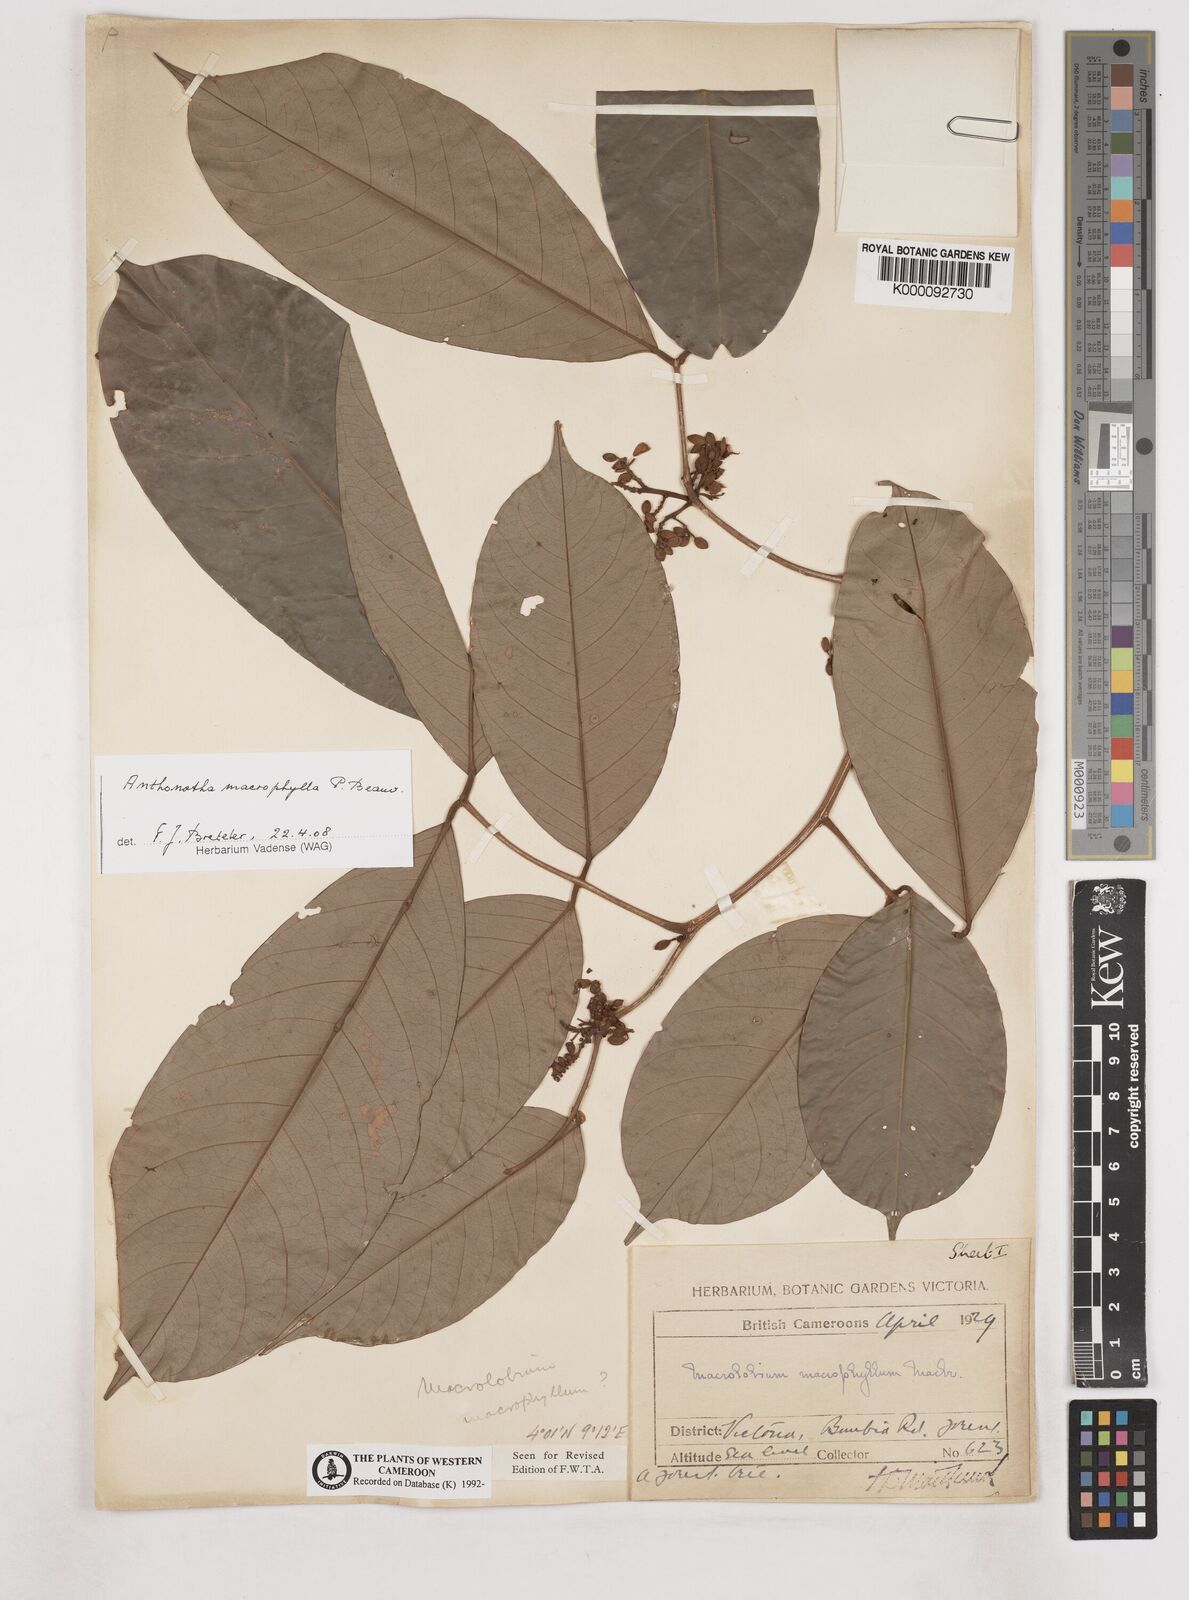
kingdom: Plantae
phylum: Tracheophyta
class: Magnoliopsida
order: Fabales
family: Fabaceae
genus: Anthonotha
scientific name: Anthonotha macrophylla
